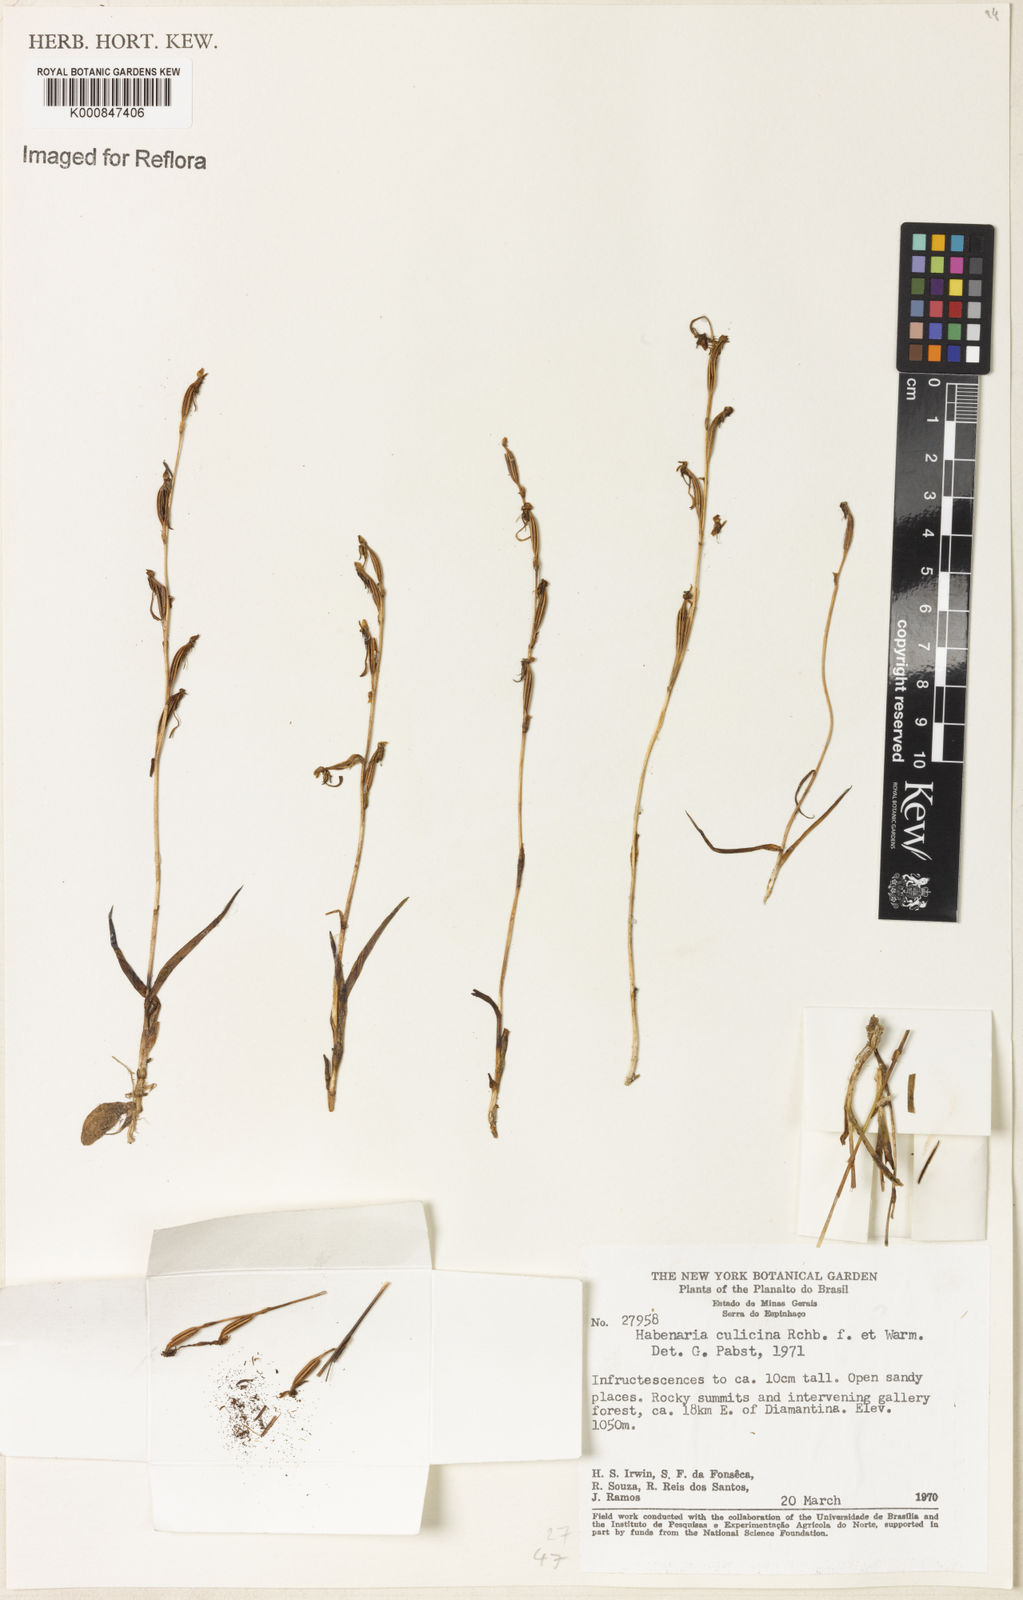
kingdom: Plantae
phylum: Tracheophyta
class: Liliopsida
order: Asparagales
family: Orchidaceae
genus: Habenaria
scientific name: Habenaria culicina
